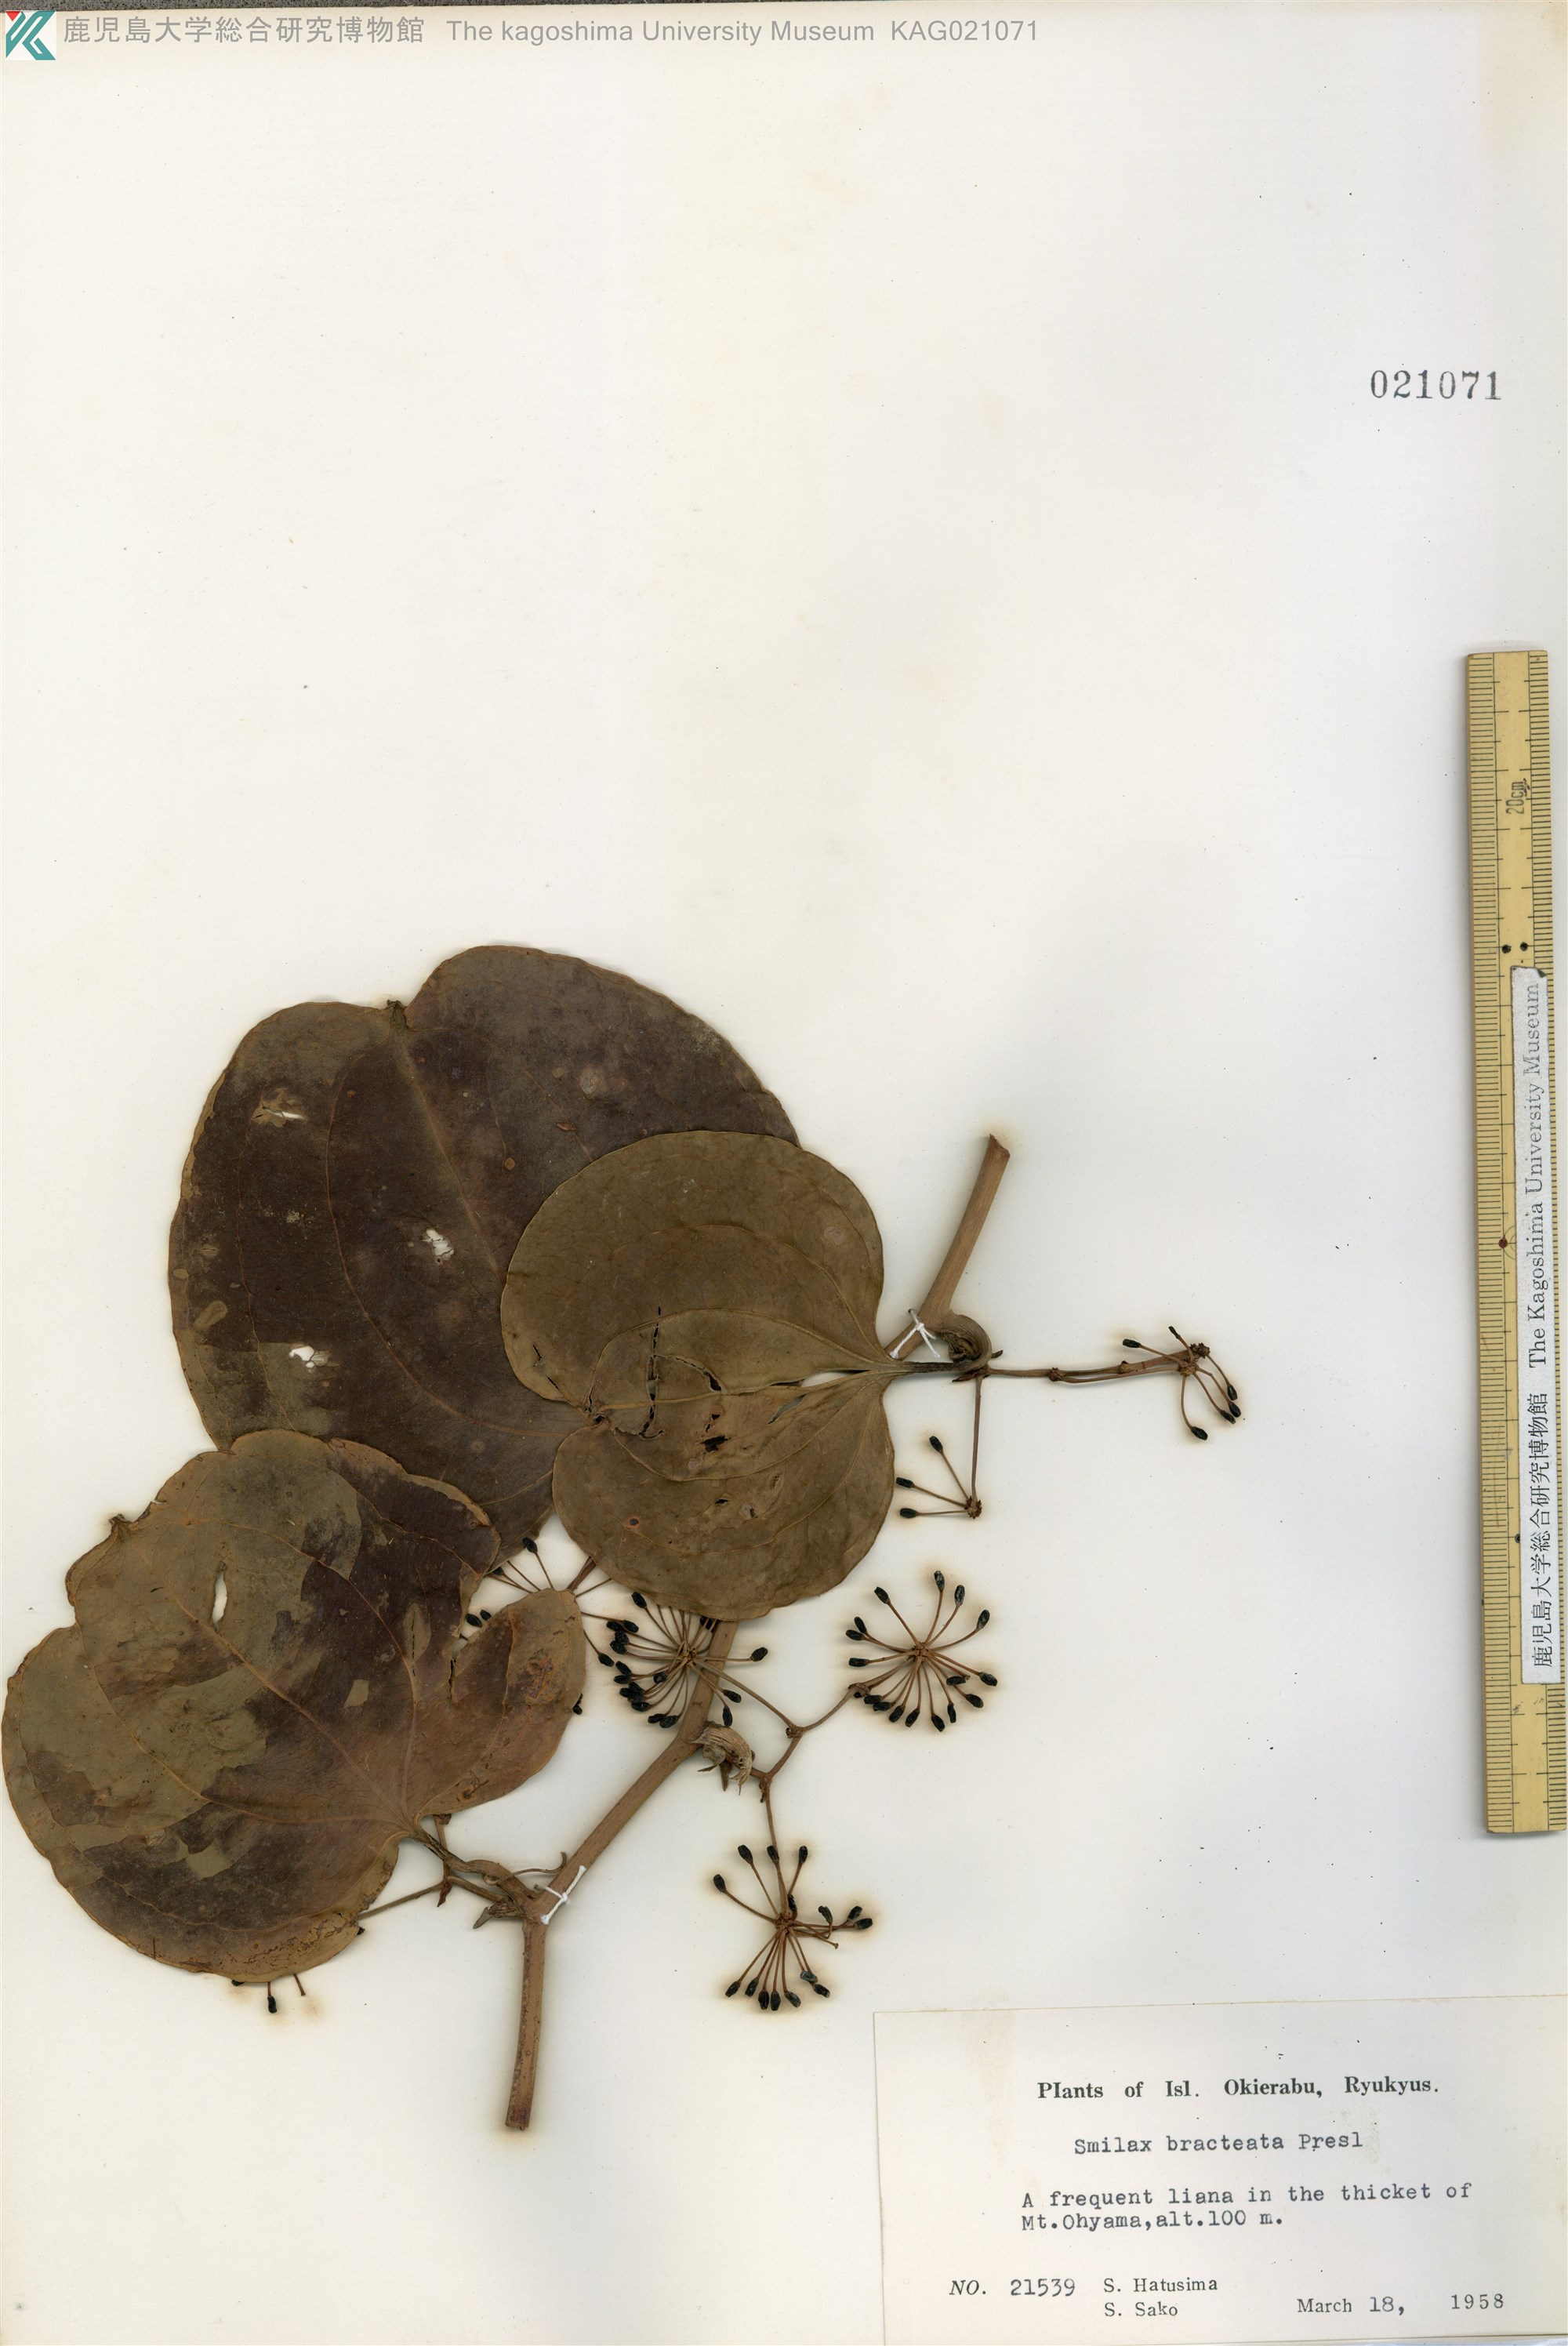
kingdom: Plantae
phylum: Tracheophyta
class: Liliopsida
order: Liliales
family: Smilacaceae
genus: Smilax
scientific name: Smilax bracteata
